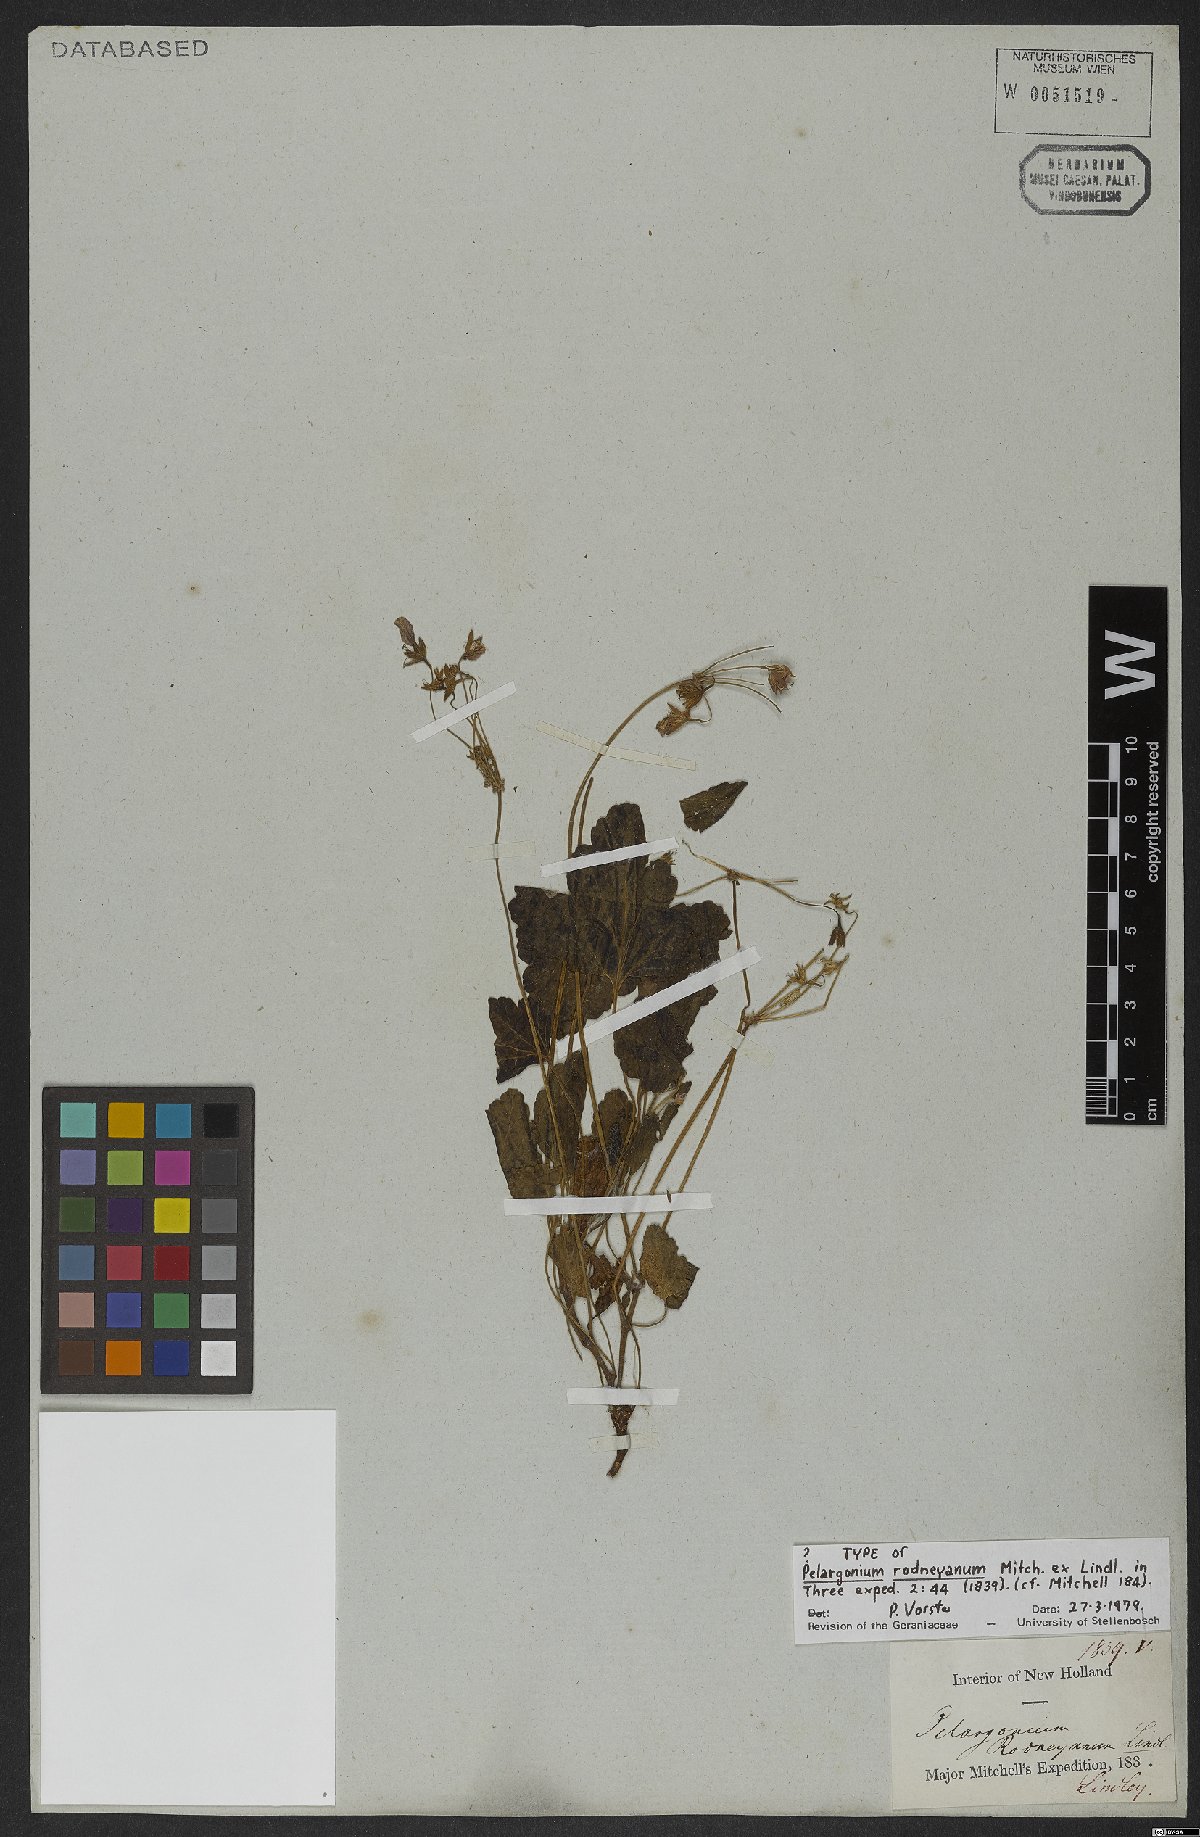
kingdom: Plantae
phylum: Tracheophyta
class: Magnoliopsida
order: Geraniales
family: Geraniaceae
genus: Pelargonium
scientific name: Pelargonium rodneyanum
